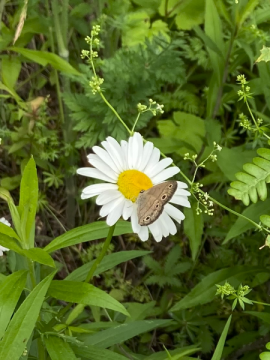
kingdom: Animalia
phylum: Arthropoda
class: Insecta
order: Lepidoptera
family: Nymphalidae
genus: Euptychia
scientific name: Euptychia cymela
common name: Little Wood Satyr
